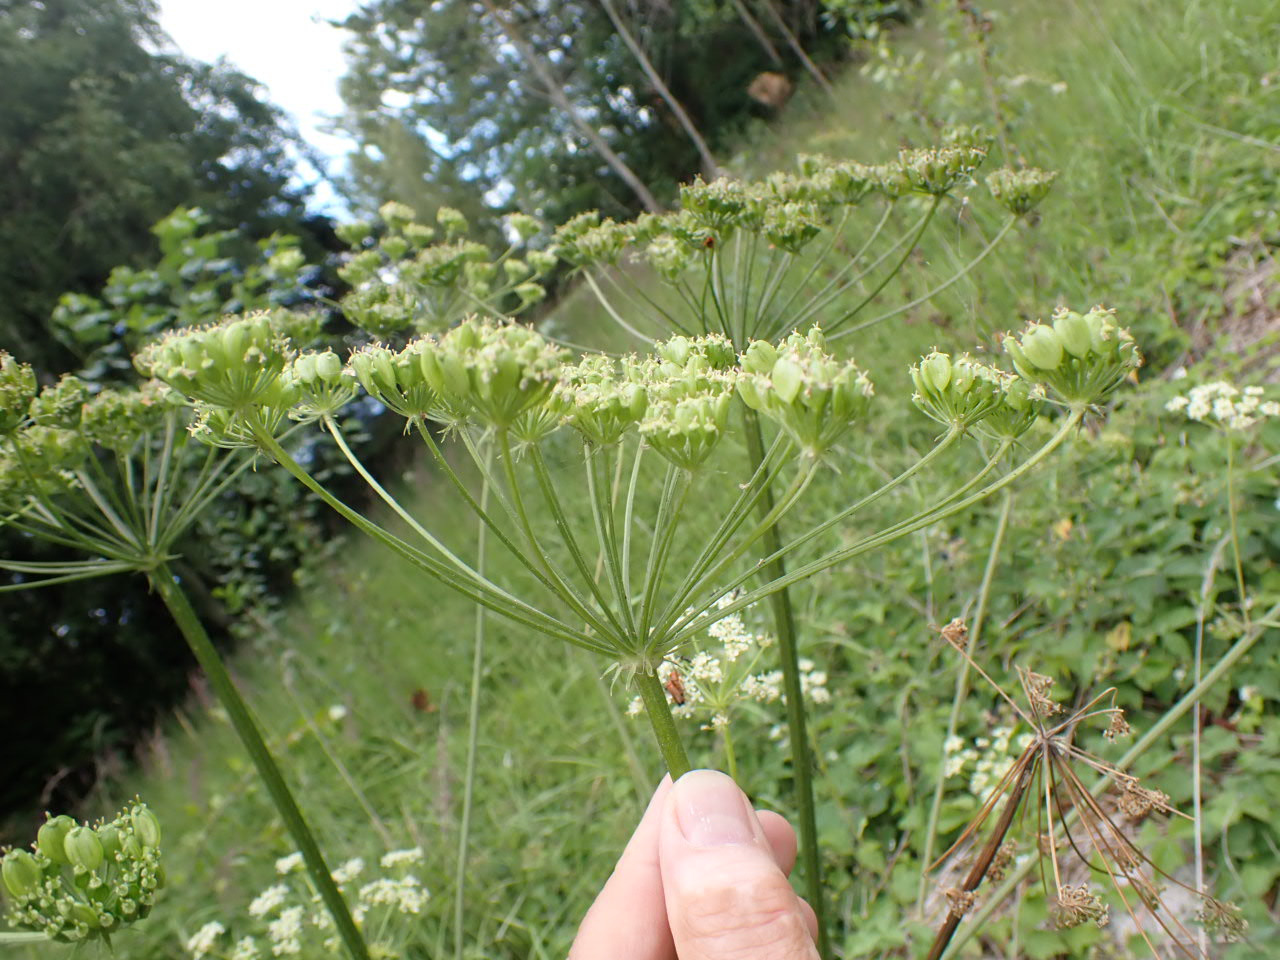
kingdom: Plantae
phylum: Tracheophyta
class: Magnoliopsida
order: Apiales
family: Apiaceae
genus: Heracleum
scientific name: Heracleum sphondylium
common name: Almindelig bjørneklo
